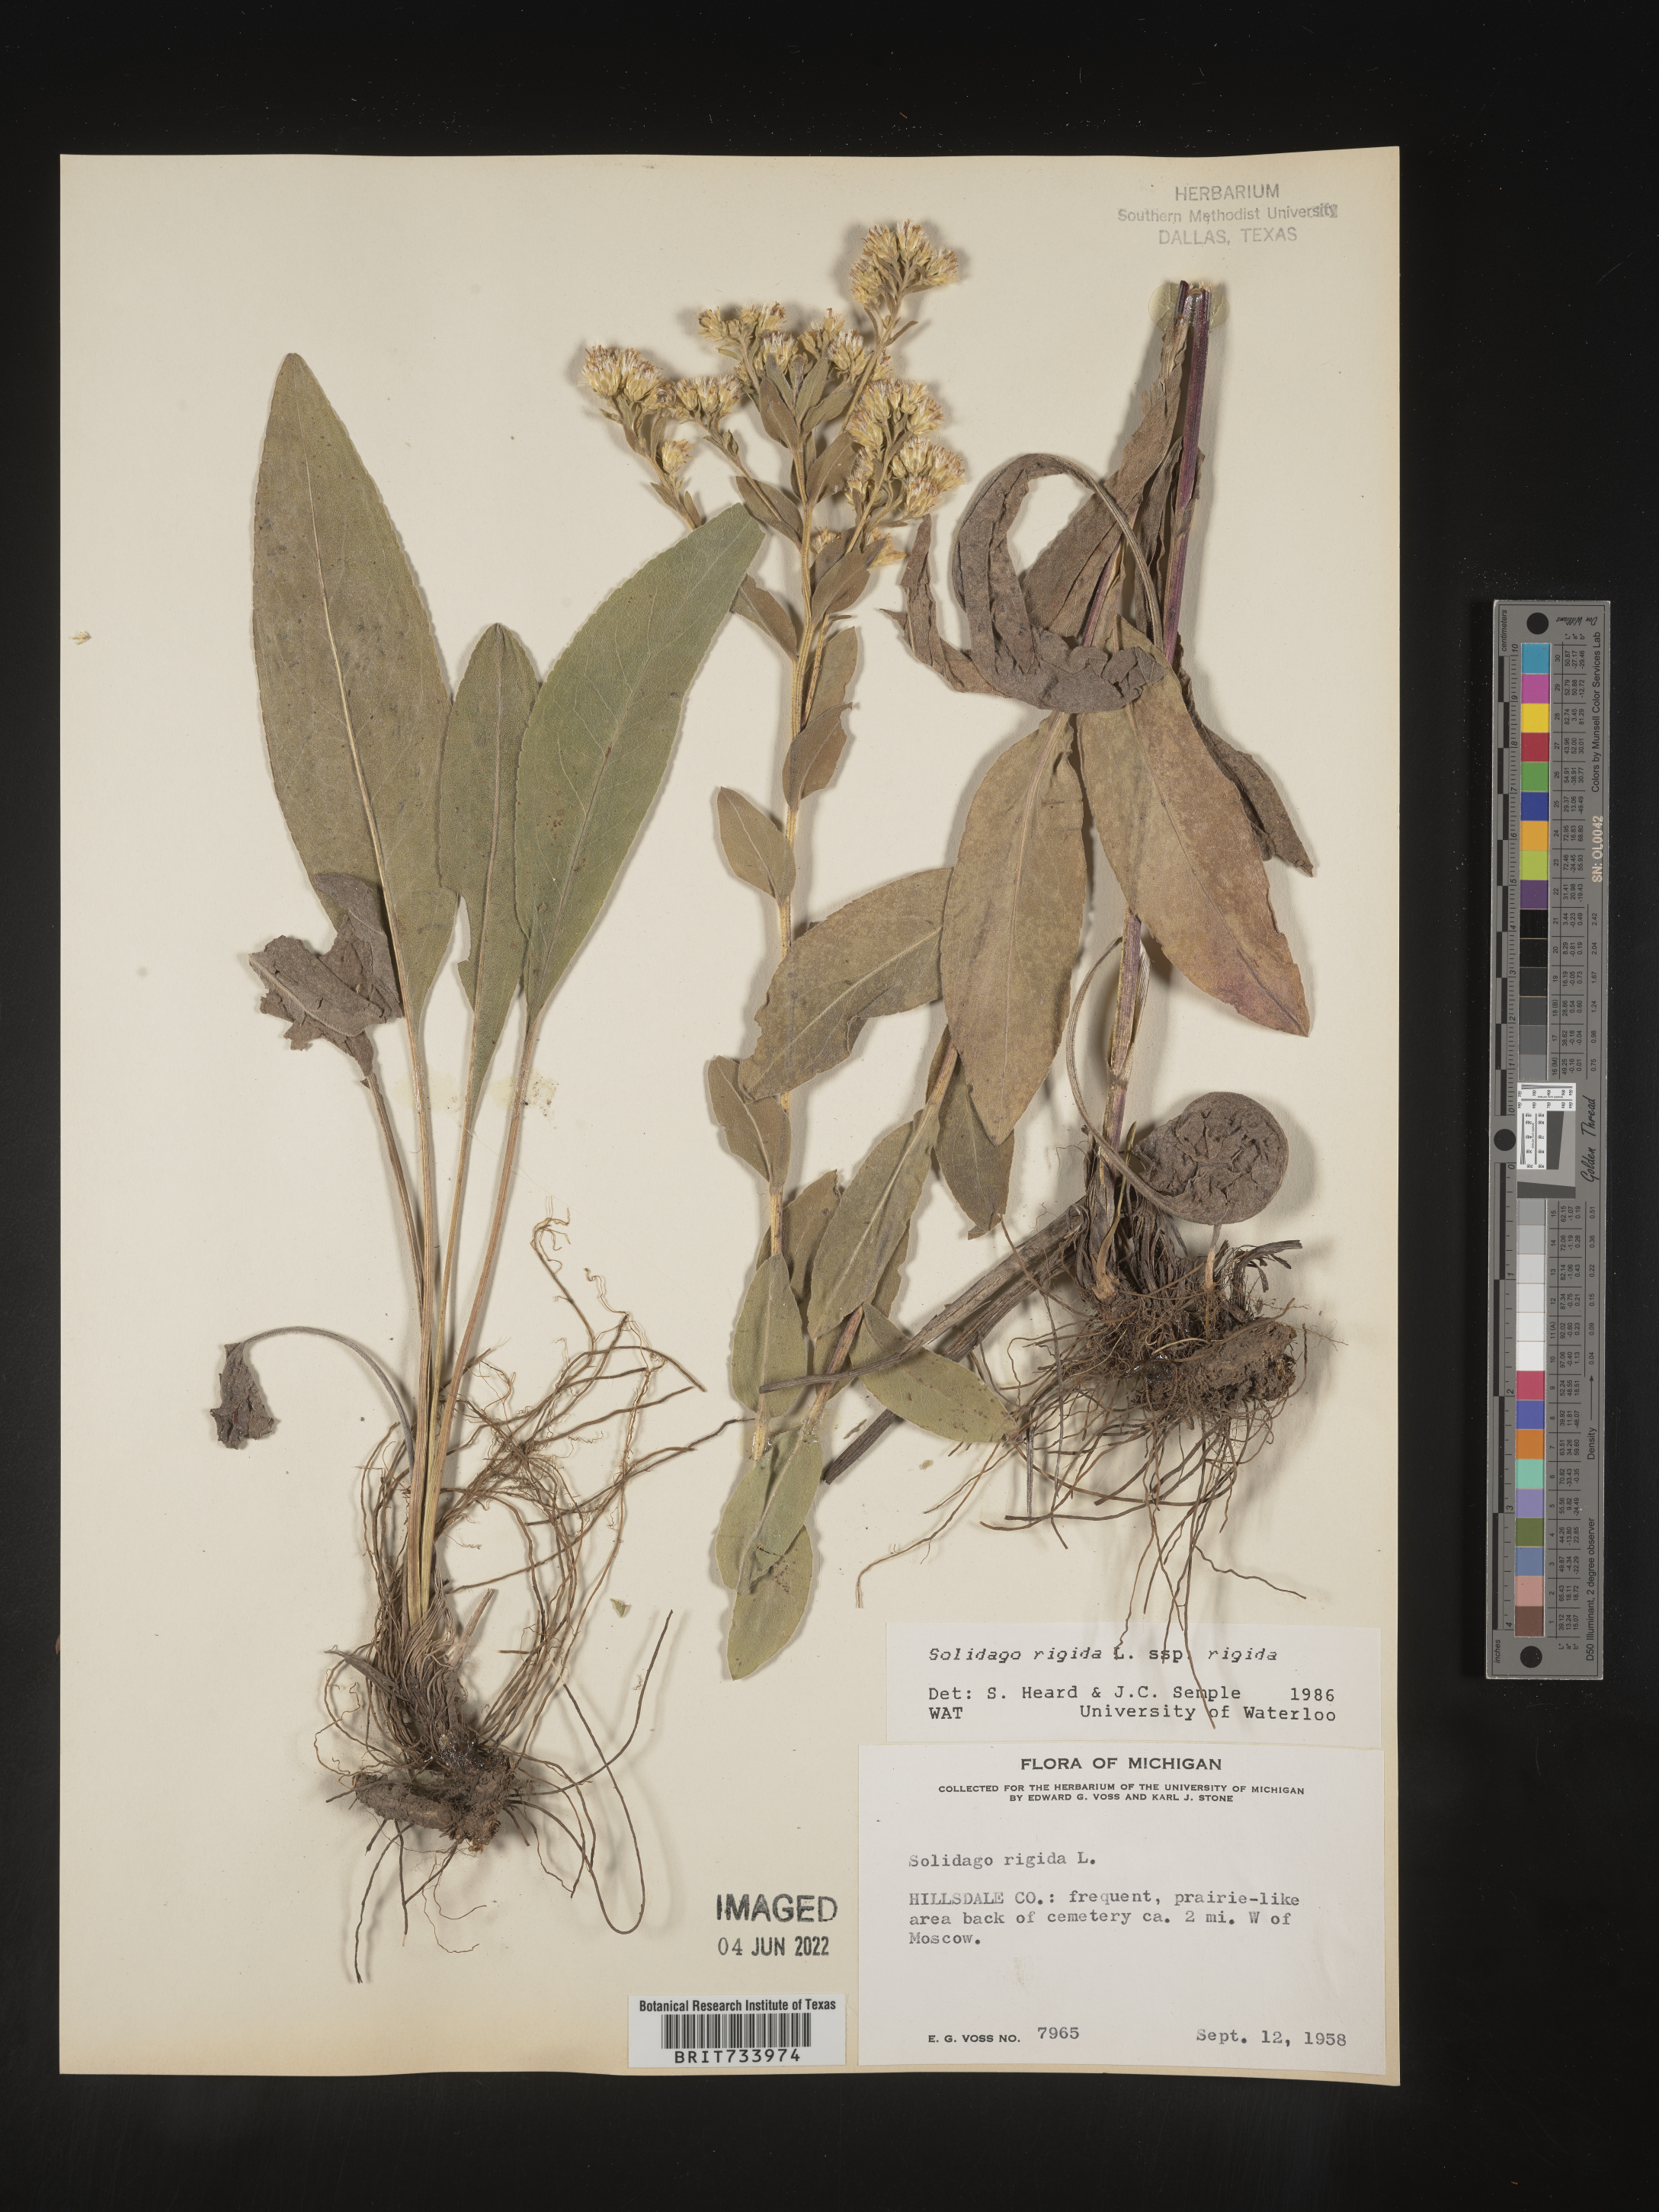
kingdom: Plantae
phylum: Tracheophyta
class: Magnoliopsida
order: Asterales
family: Asteraceae
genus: Solidago
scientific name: Solidago rigida
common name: Rigid goldenrod
